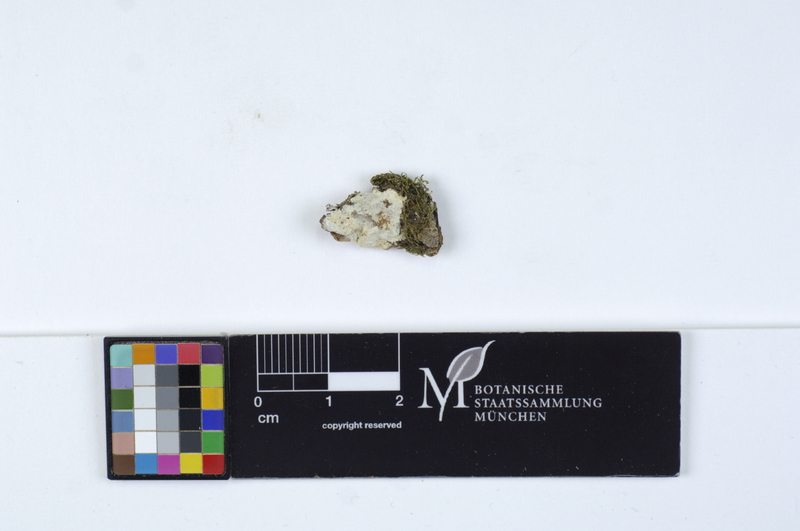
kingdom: Fungi
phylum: Basidiomycota
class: Agaricomycetes
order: Agaricales
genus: Dendrothele
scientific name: Dendrothele alliacea
